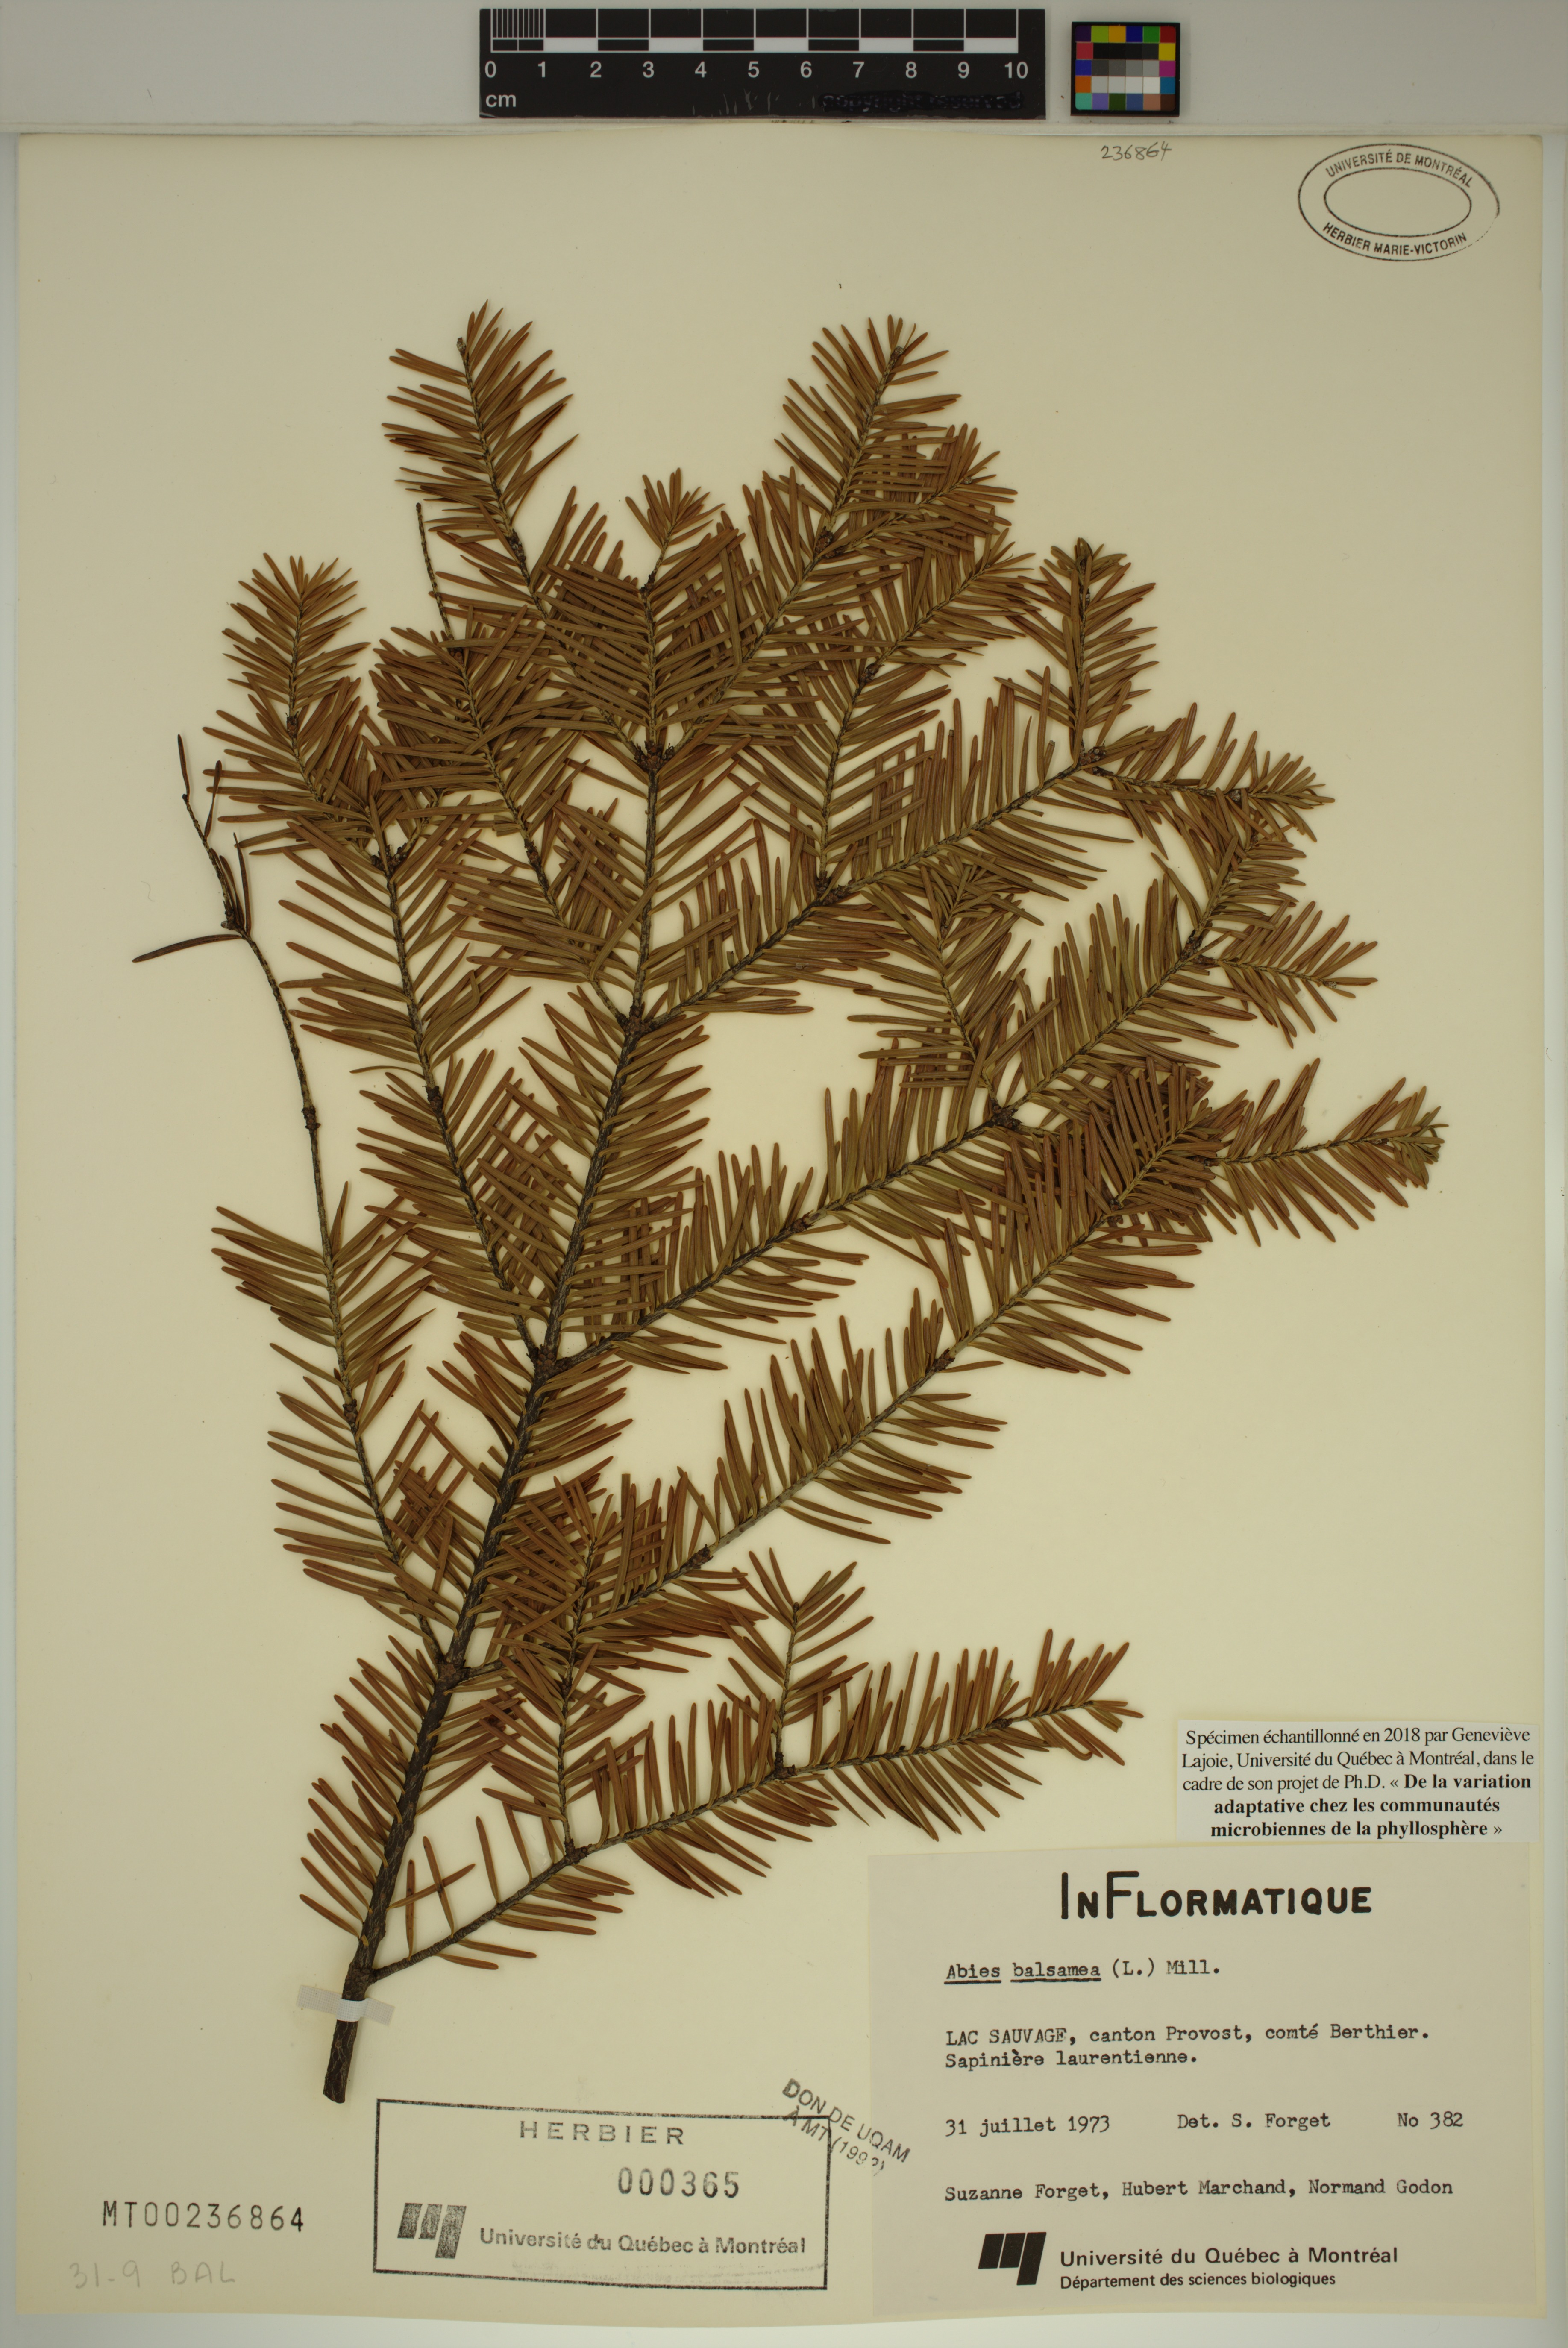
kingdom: Plantae
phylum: Tracheophyta
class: Pinopsida
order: Pinales
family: Pinaceae
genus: Abies
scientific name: Abies balsamea
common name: Balsam fir
